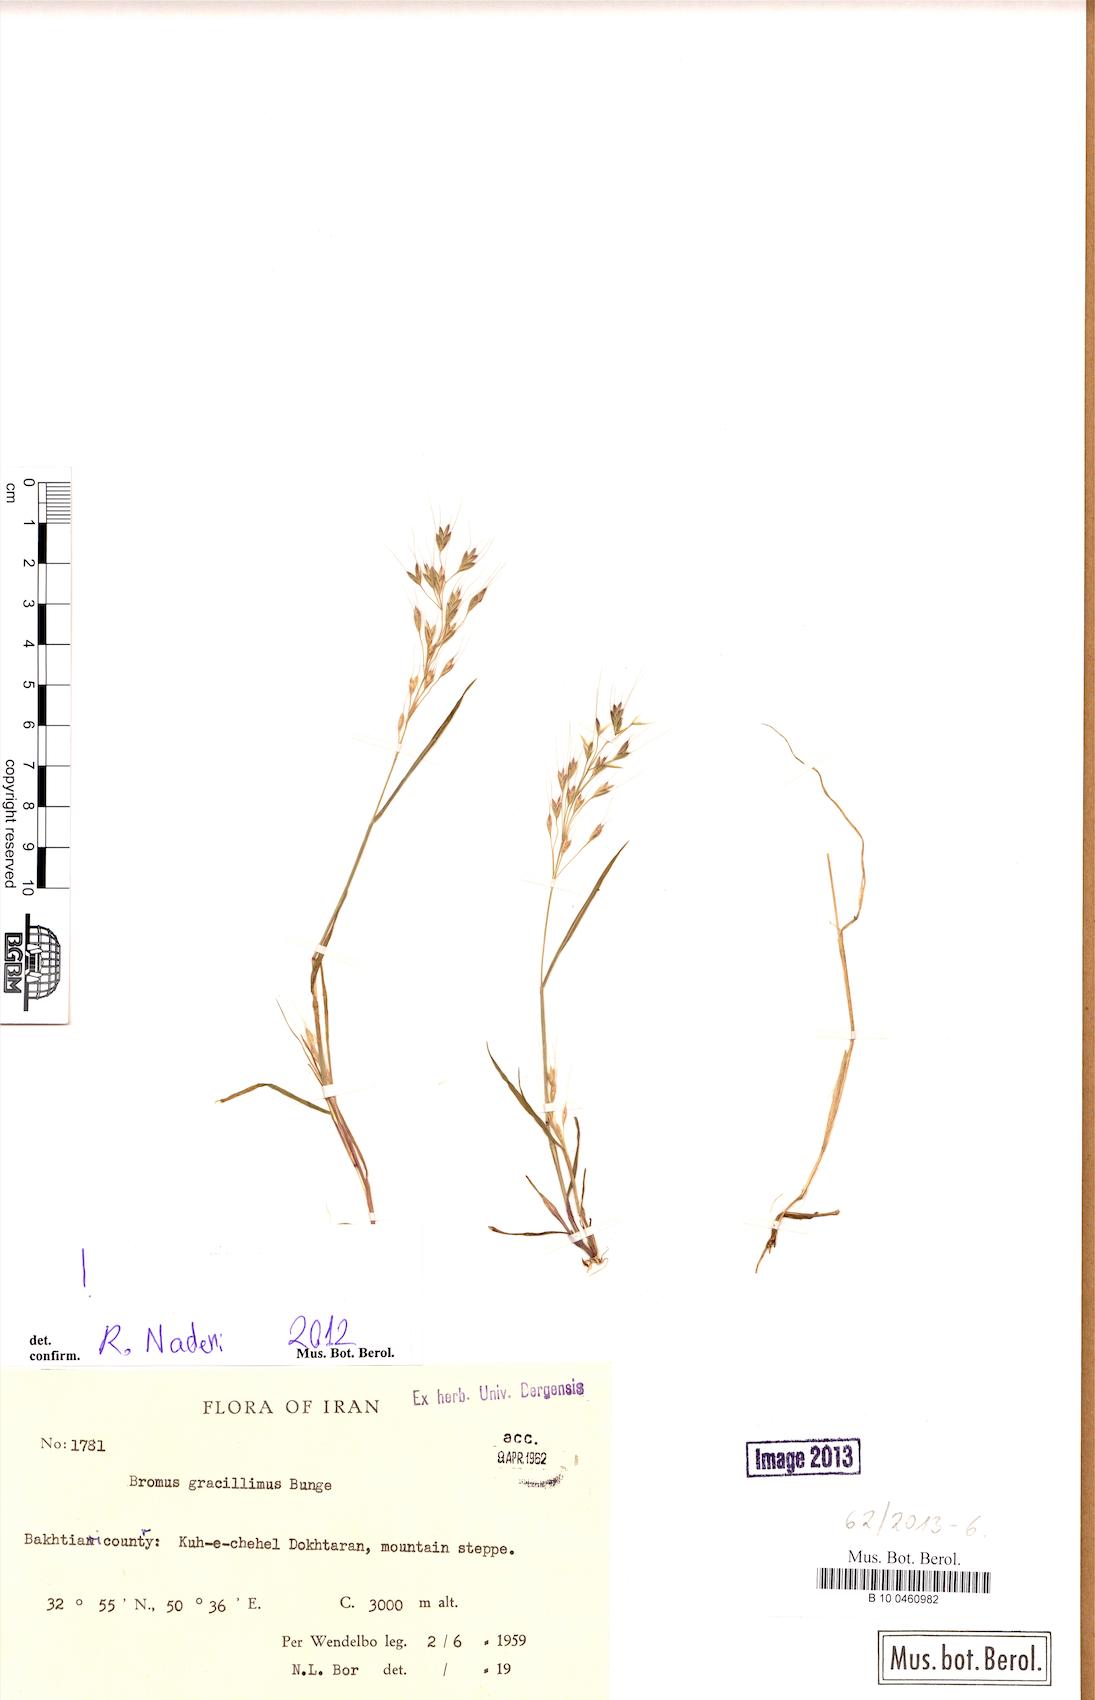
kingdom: Plantae
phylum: Tracheophyta
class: Liliopsida
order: Poales
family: Poaceae
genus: Bromus
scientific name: Bromus gracillimus
